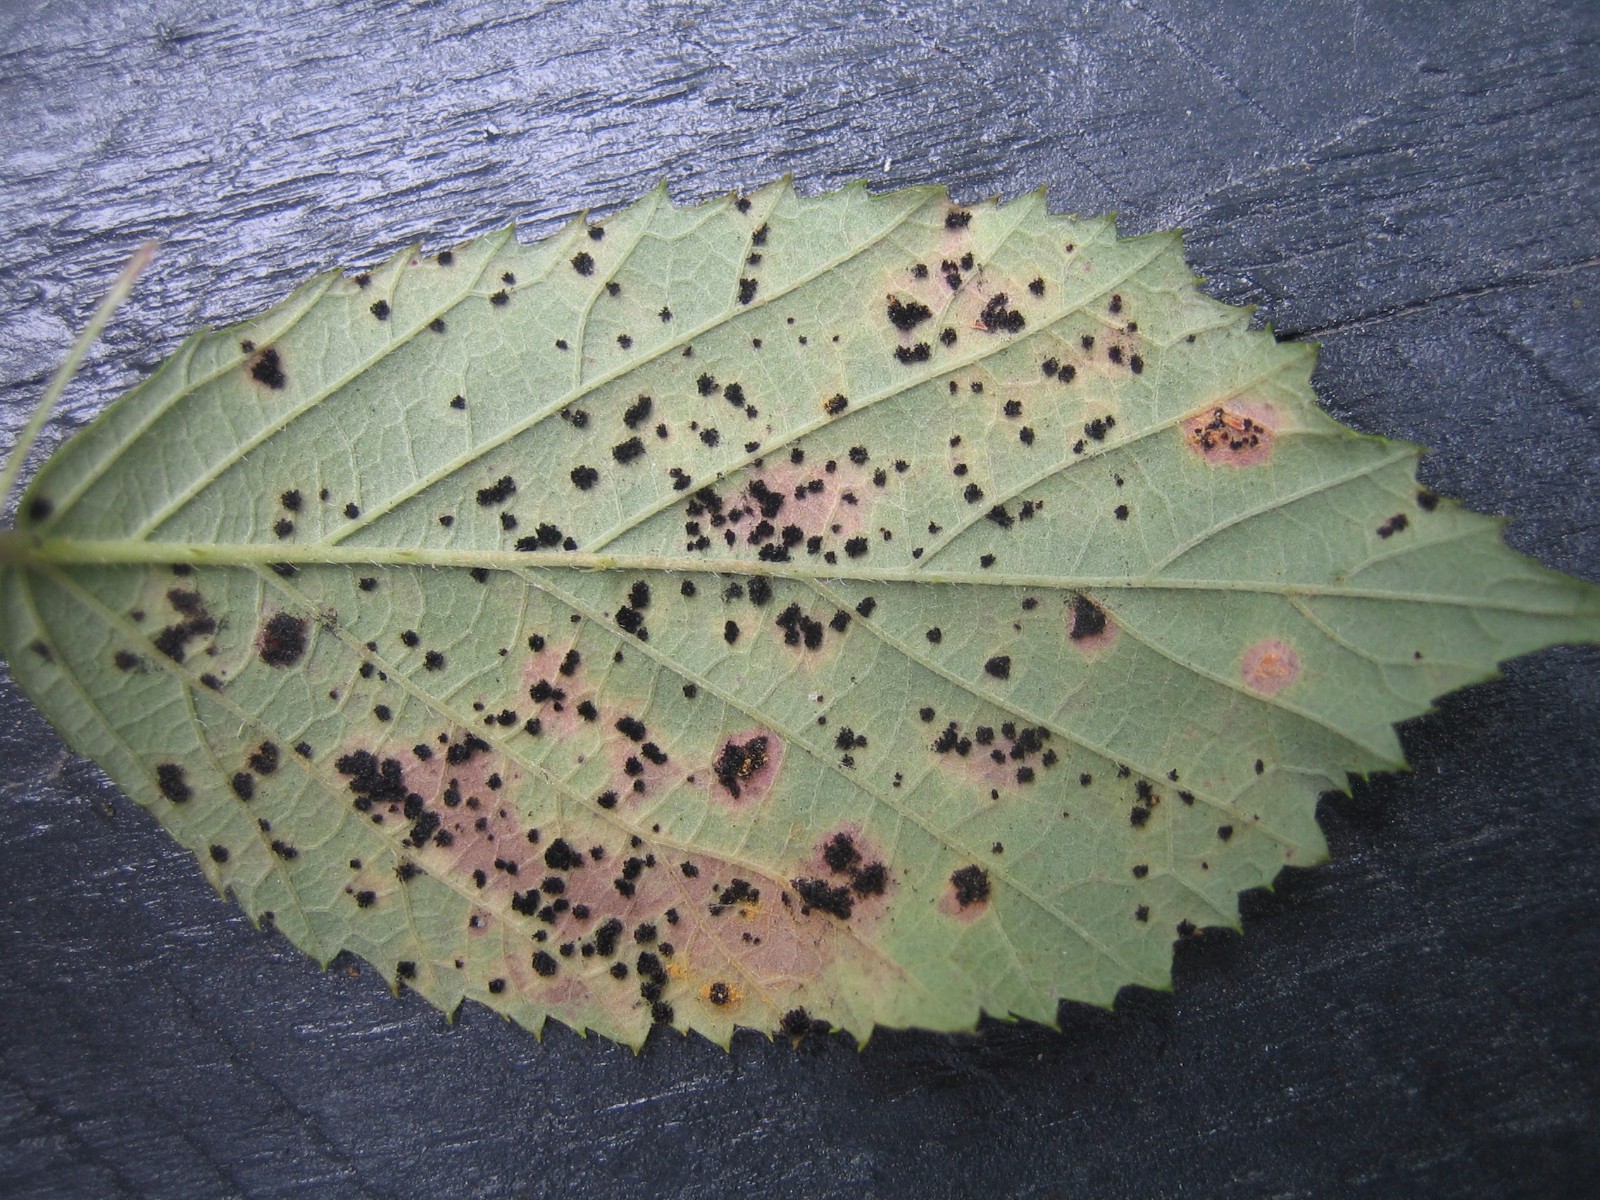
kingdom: Fungi
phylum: Basidiomycota
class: Pucciniomycetes
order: Pucciniales
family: Phragmidiaceae
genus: Phragmidium
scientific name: Phragmidium
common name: flercellerust
